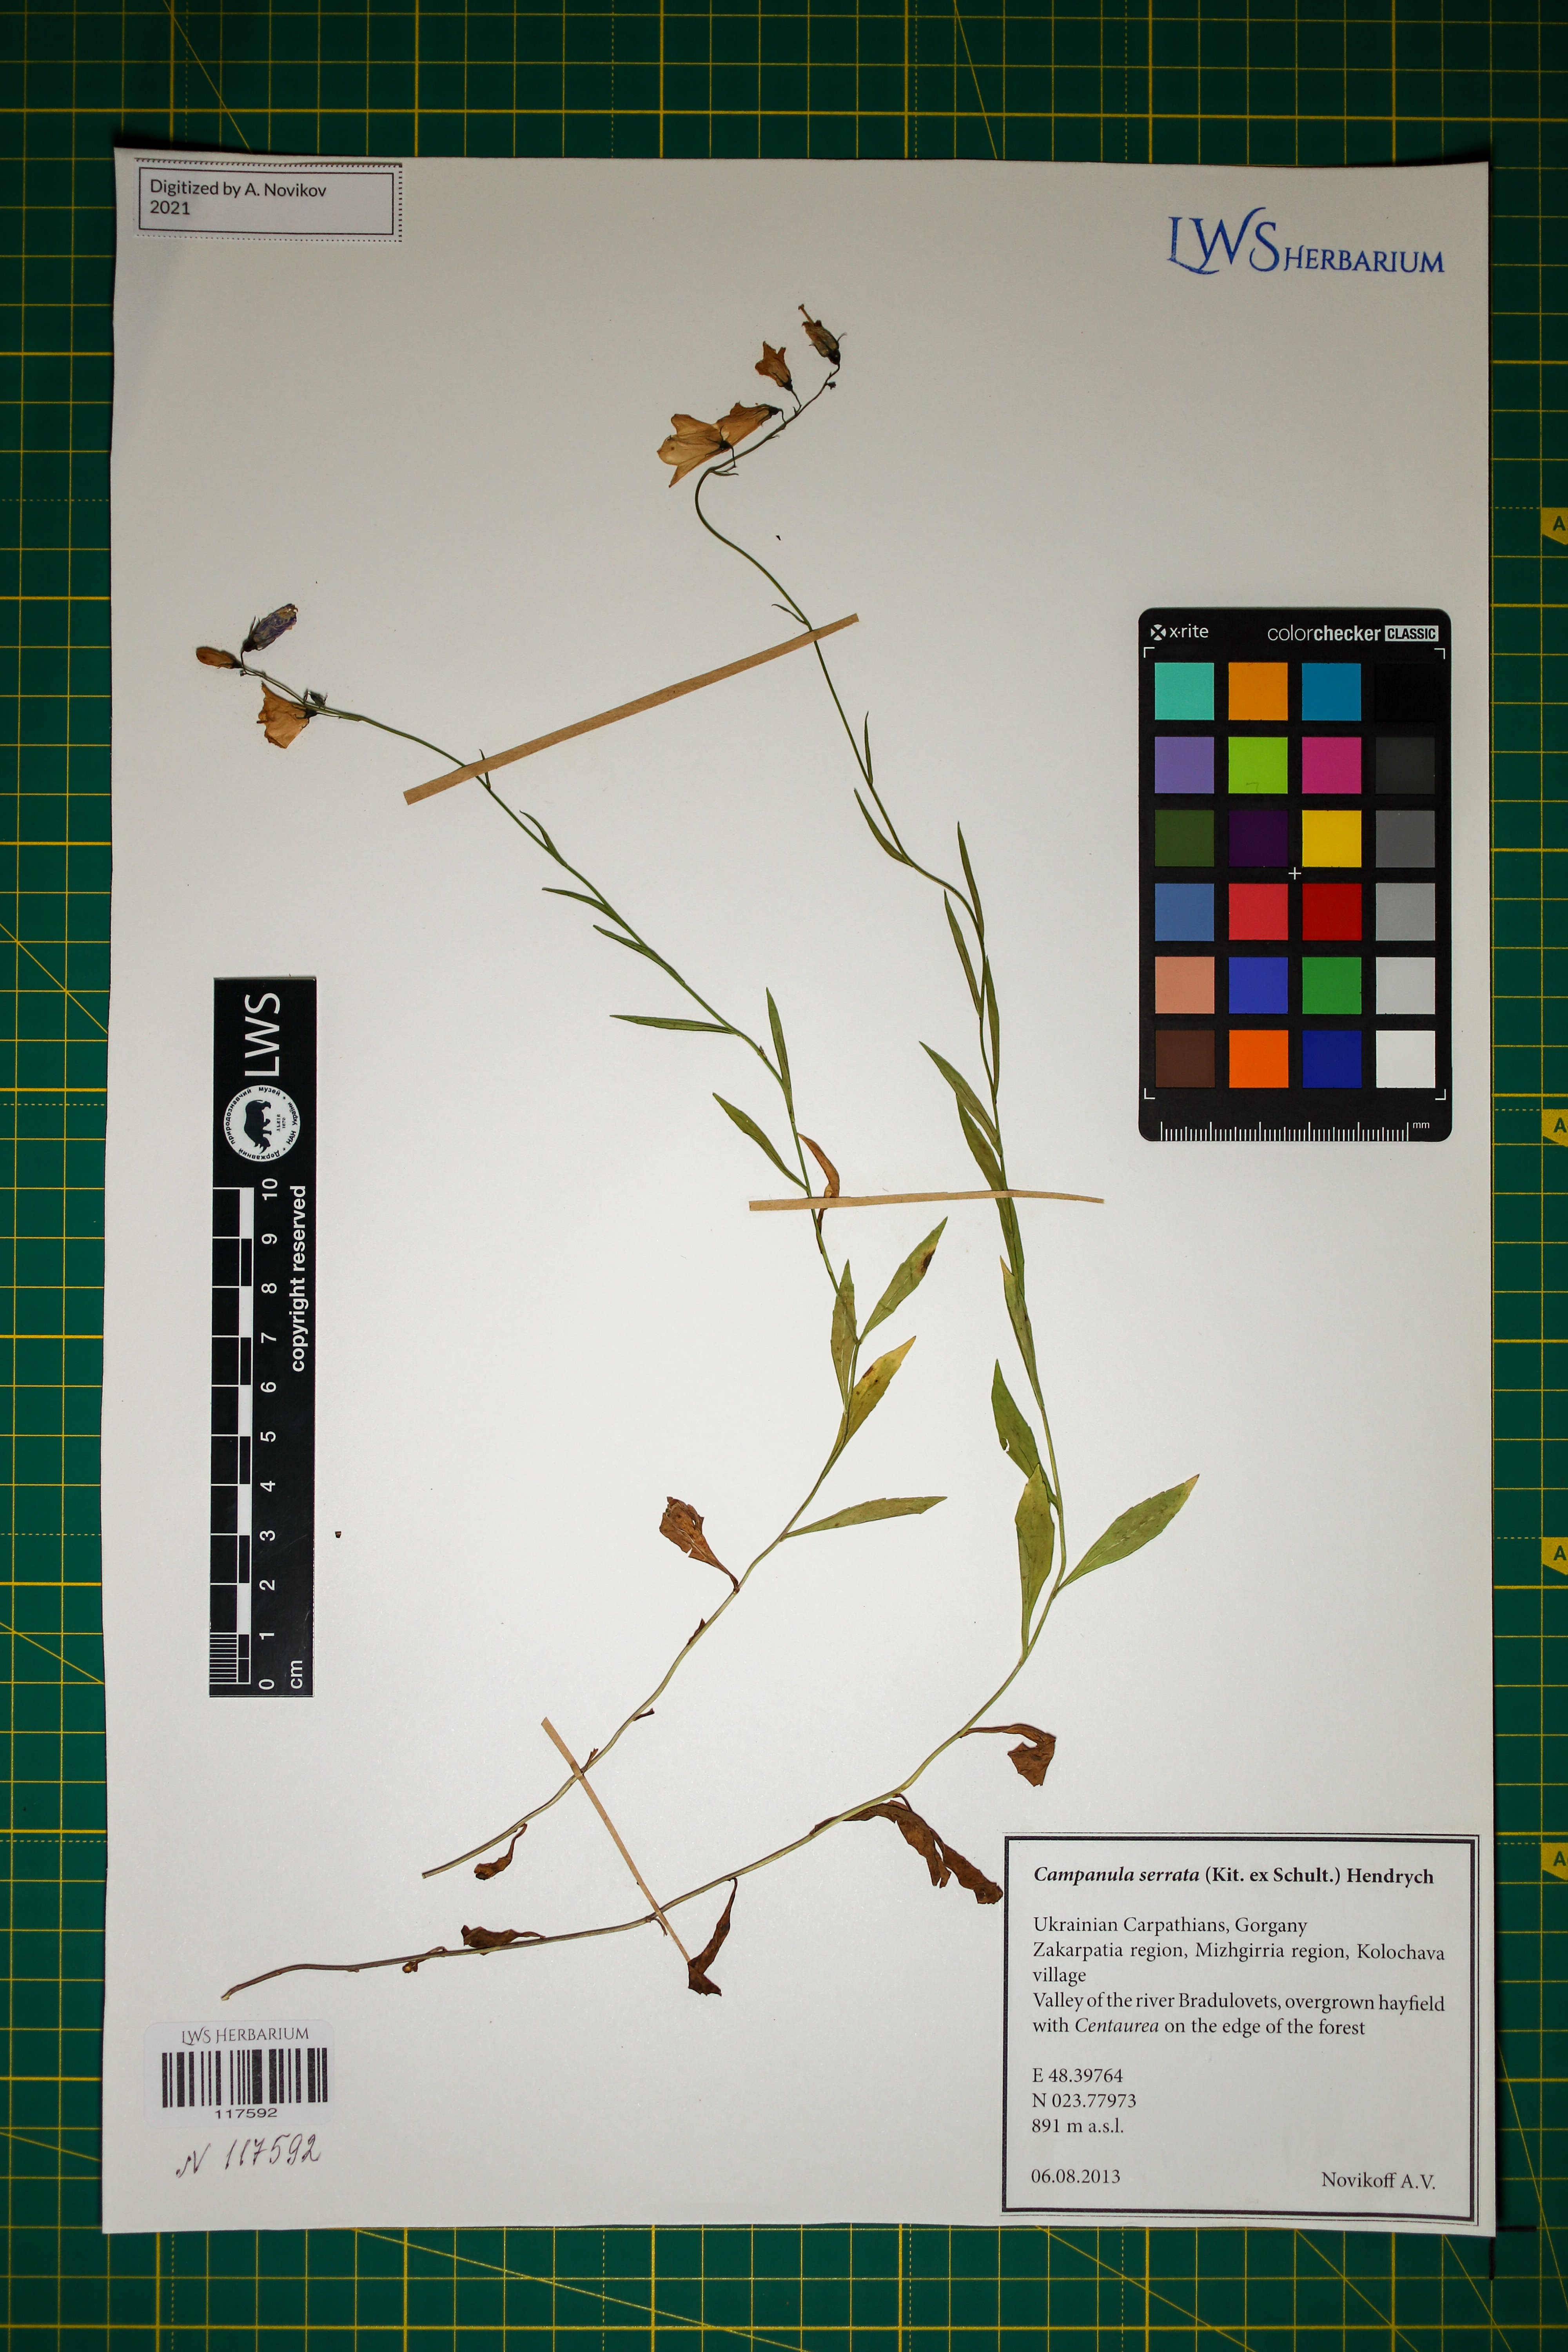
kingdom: Plantae
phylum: Tracheophyta
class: Magnoliopsida
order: Asterales
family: Campanulaceae
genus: Campanula
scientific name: Campanula serrata
